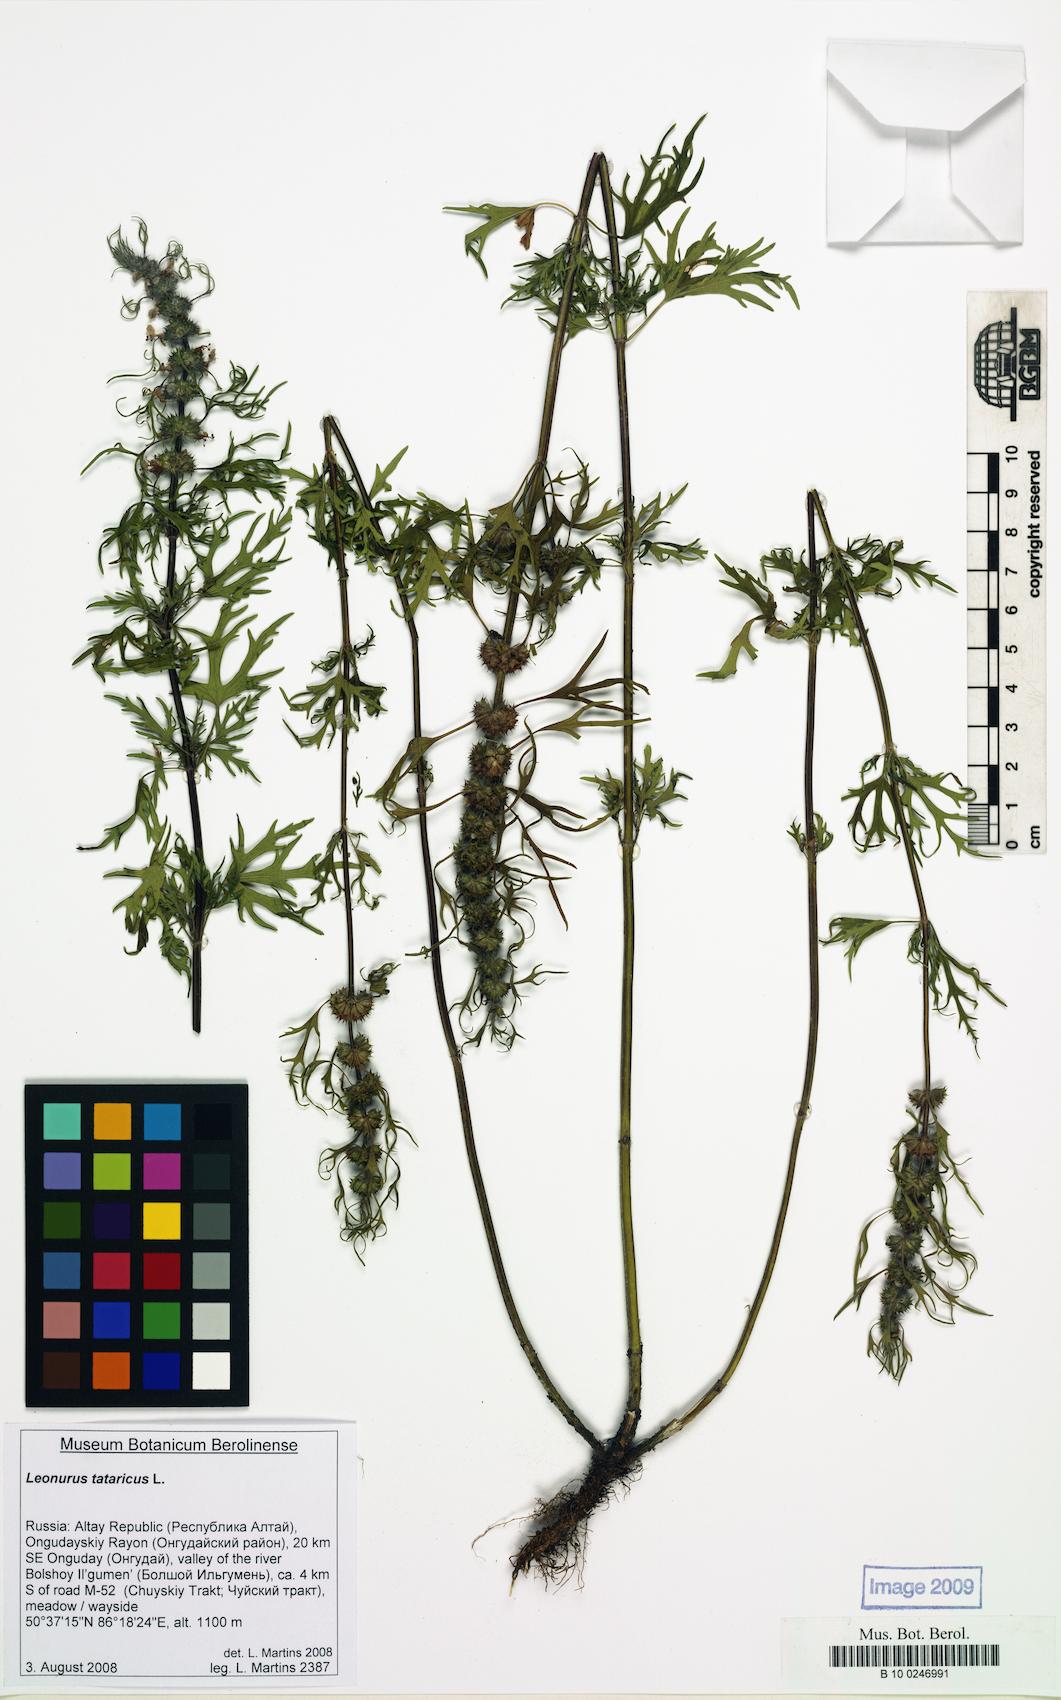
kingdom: Plantae
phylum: Tracheophyta
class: Magnoliopsida
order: Lamiales
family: Lamiaceae
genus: Leonurus
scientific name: Leonurus tataricus
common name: Chinese motherwort
